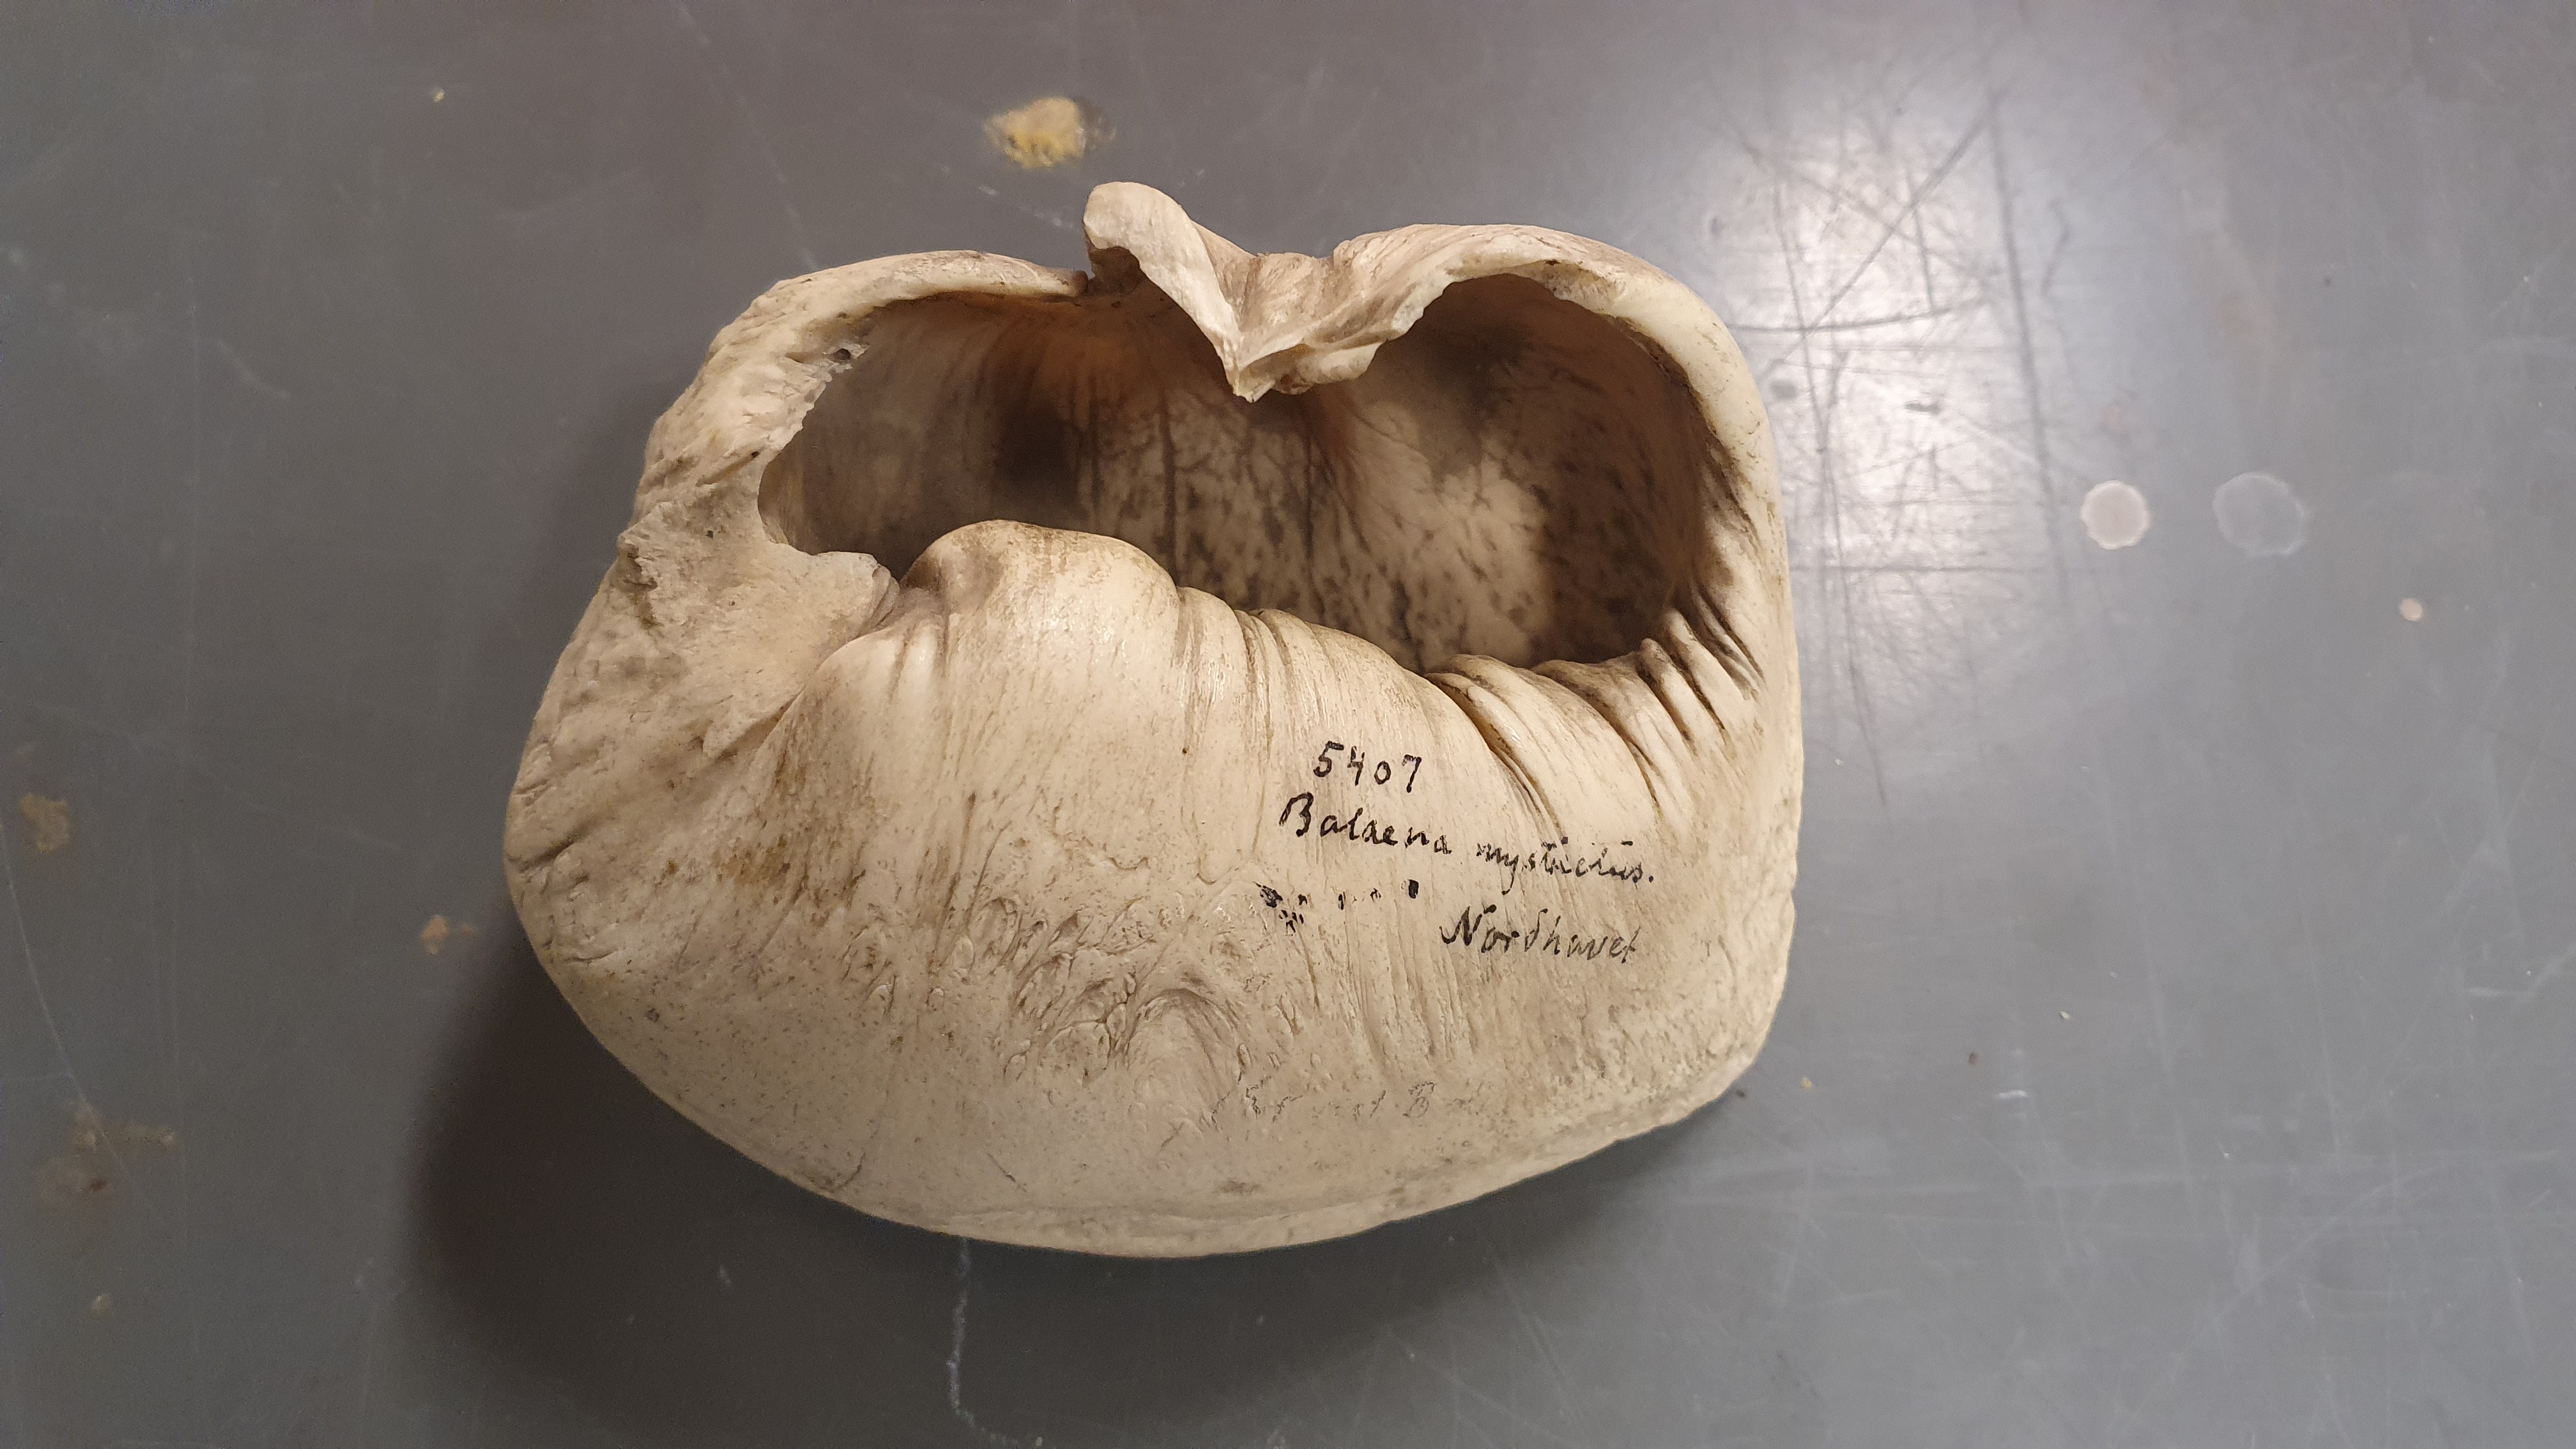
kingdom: Animalia
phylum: Chordata
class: Mammalia
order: Cetacea
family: Balaenidae
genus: Balaena
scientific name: Balaena mysticetus
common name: Bowhead whale
